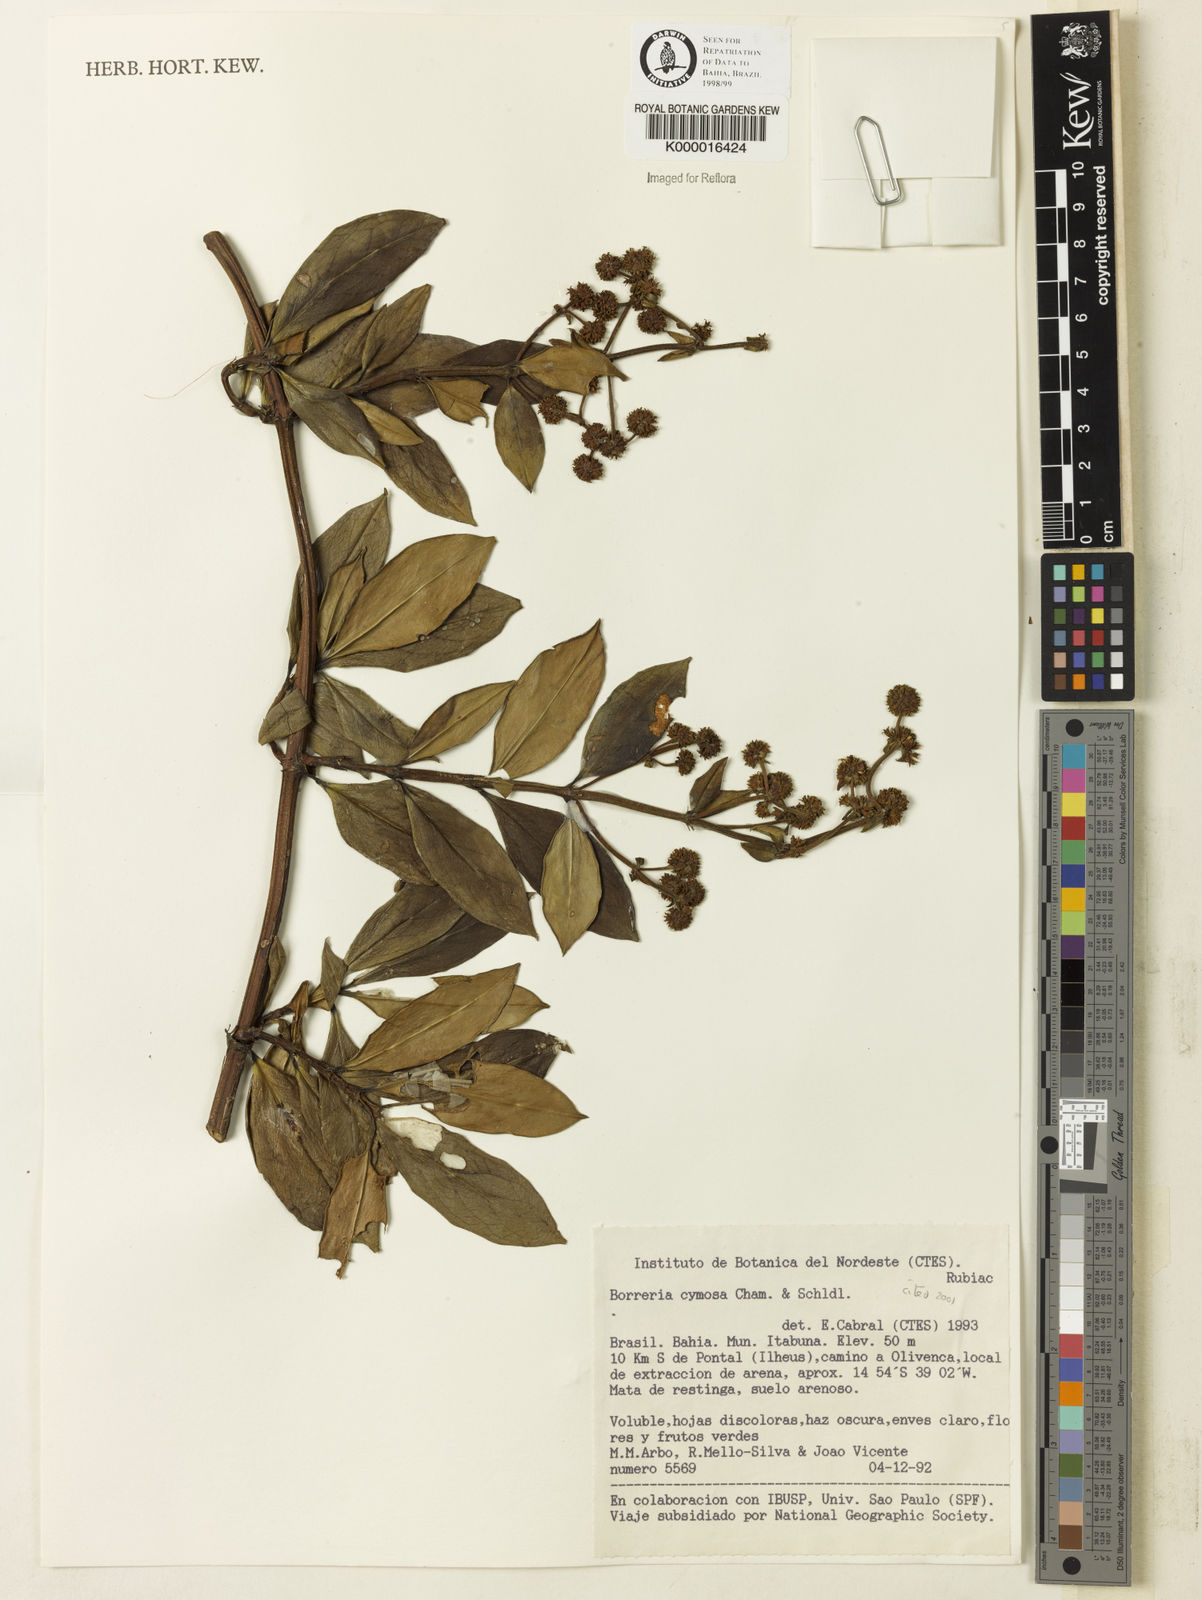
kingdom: Plantae
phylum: Tracheophyta
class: Magnoliopsida
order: Gentianales
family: Rubiaceae
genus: Denscantia
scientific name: Denscantia cymosa
